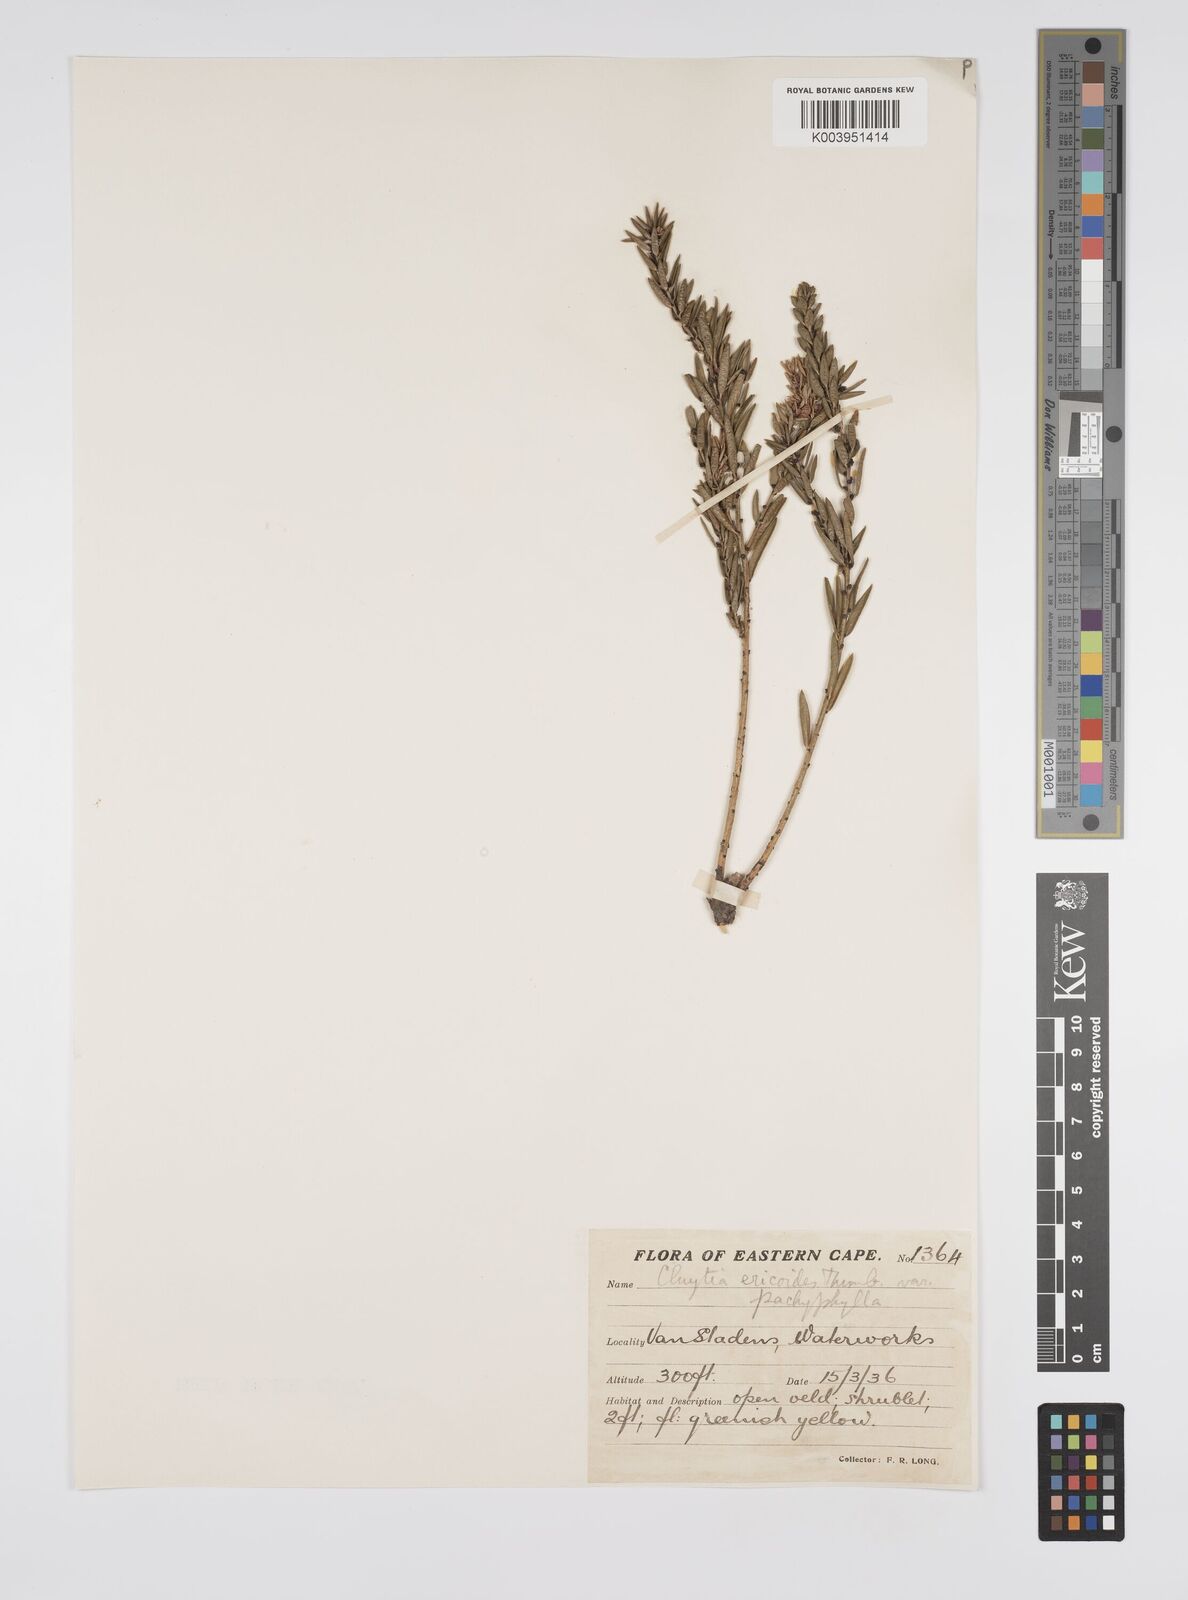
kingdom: Plantae
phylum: Tracheophyta
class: Magnoliopsida
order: Malpighiales
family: Peraceae
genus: Clutia
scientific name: Clutia
